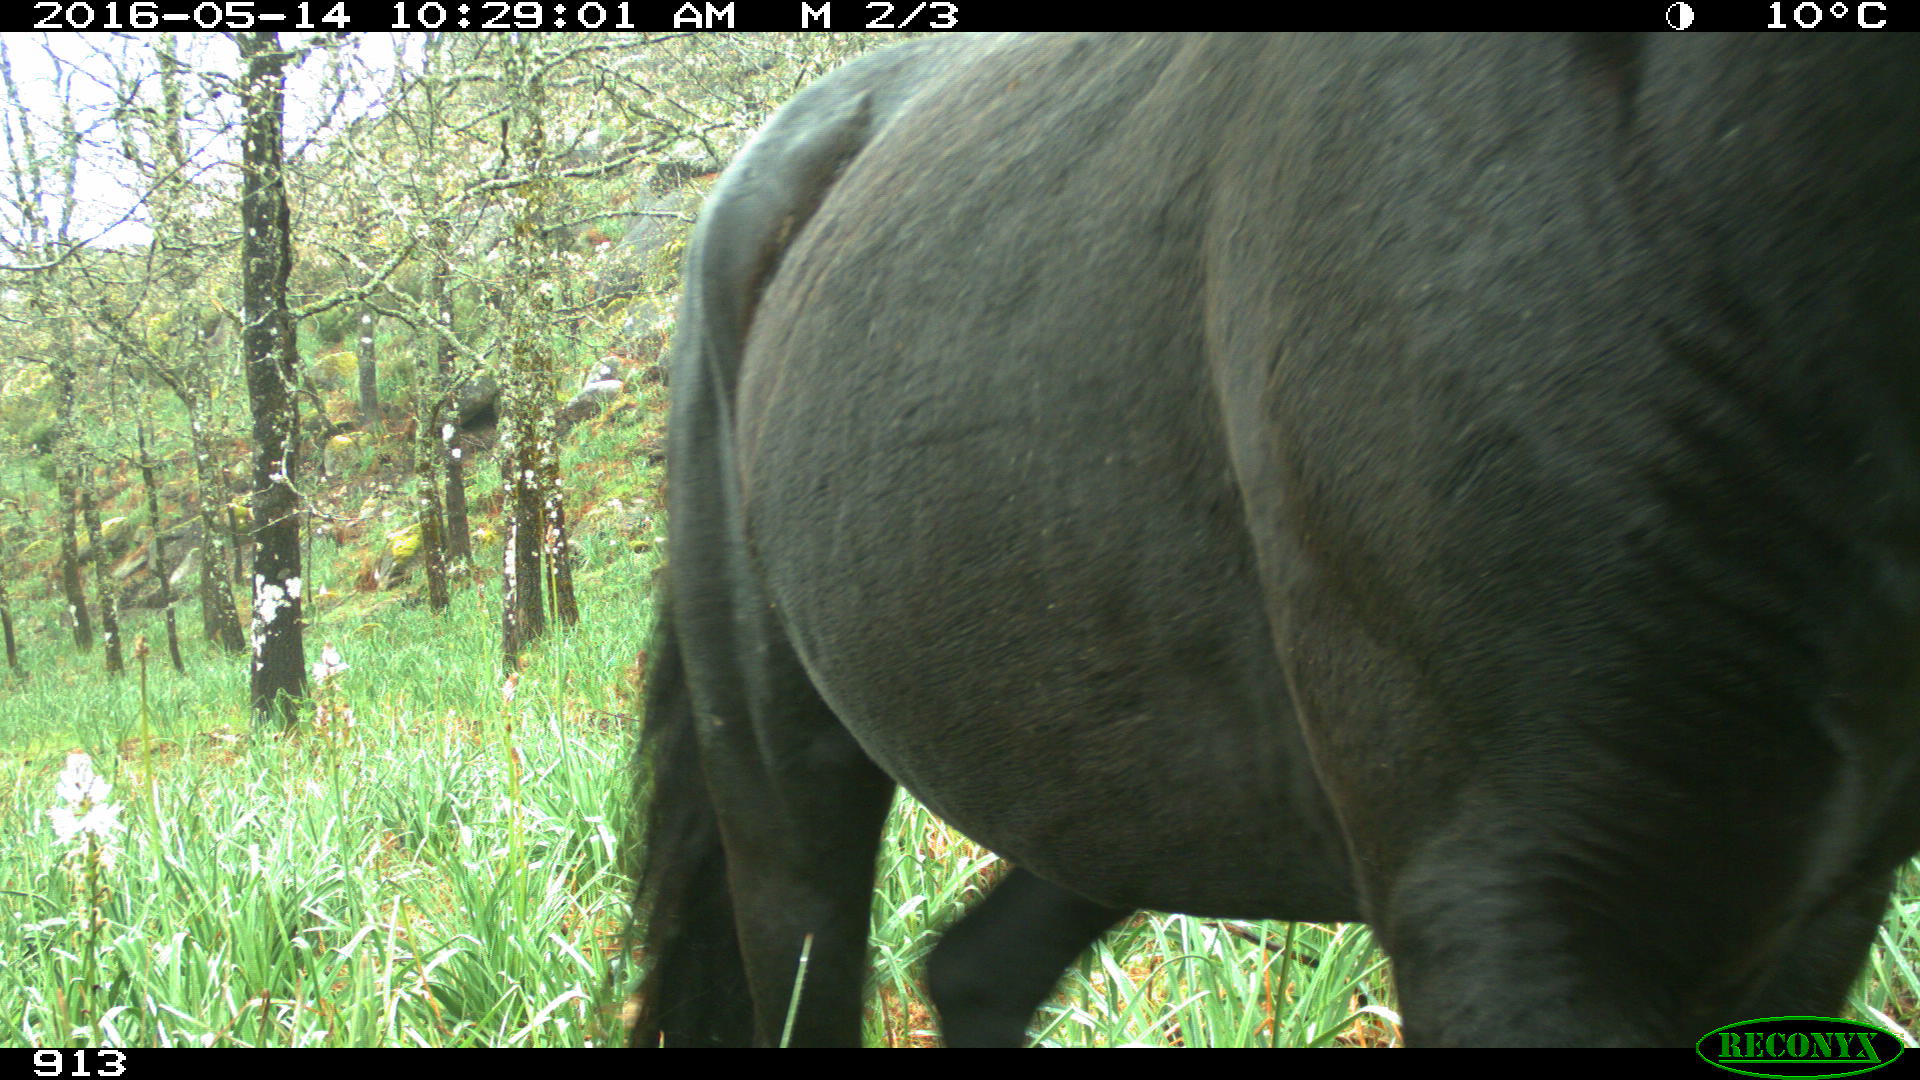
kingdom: Animalia
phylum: Chordata
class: Mammalia
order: Perissodactyla
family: Equidae
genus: Equus
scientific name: Equus caballus
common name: Horse
